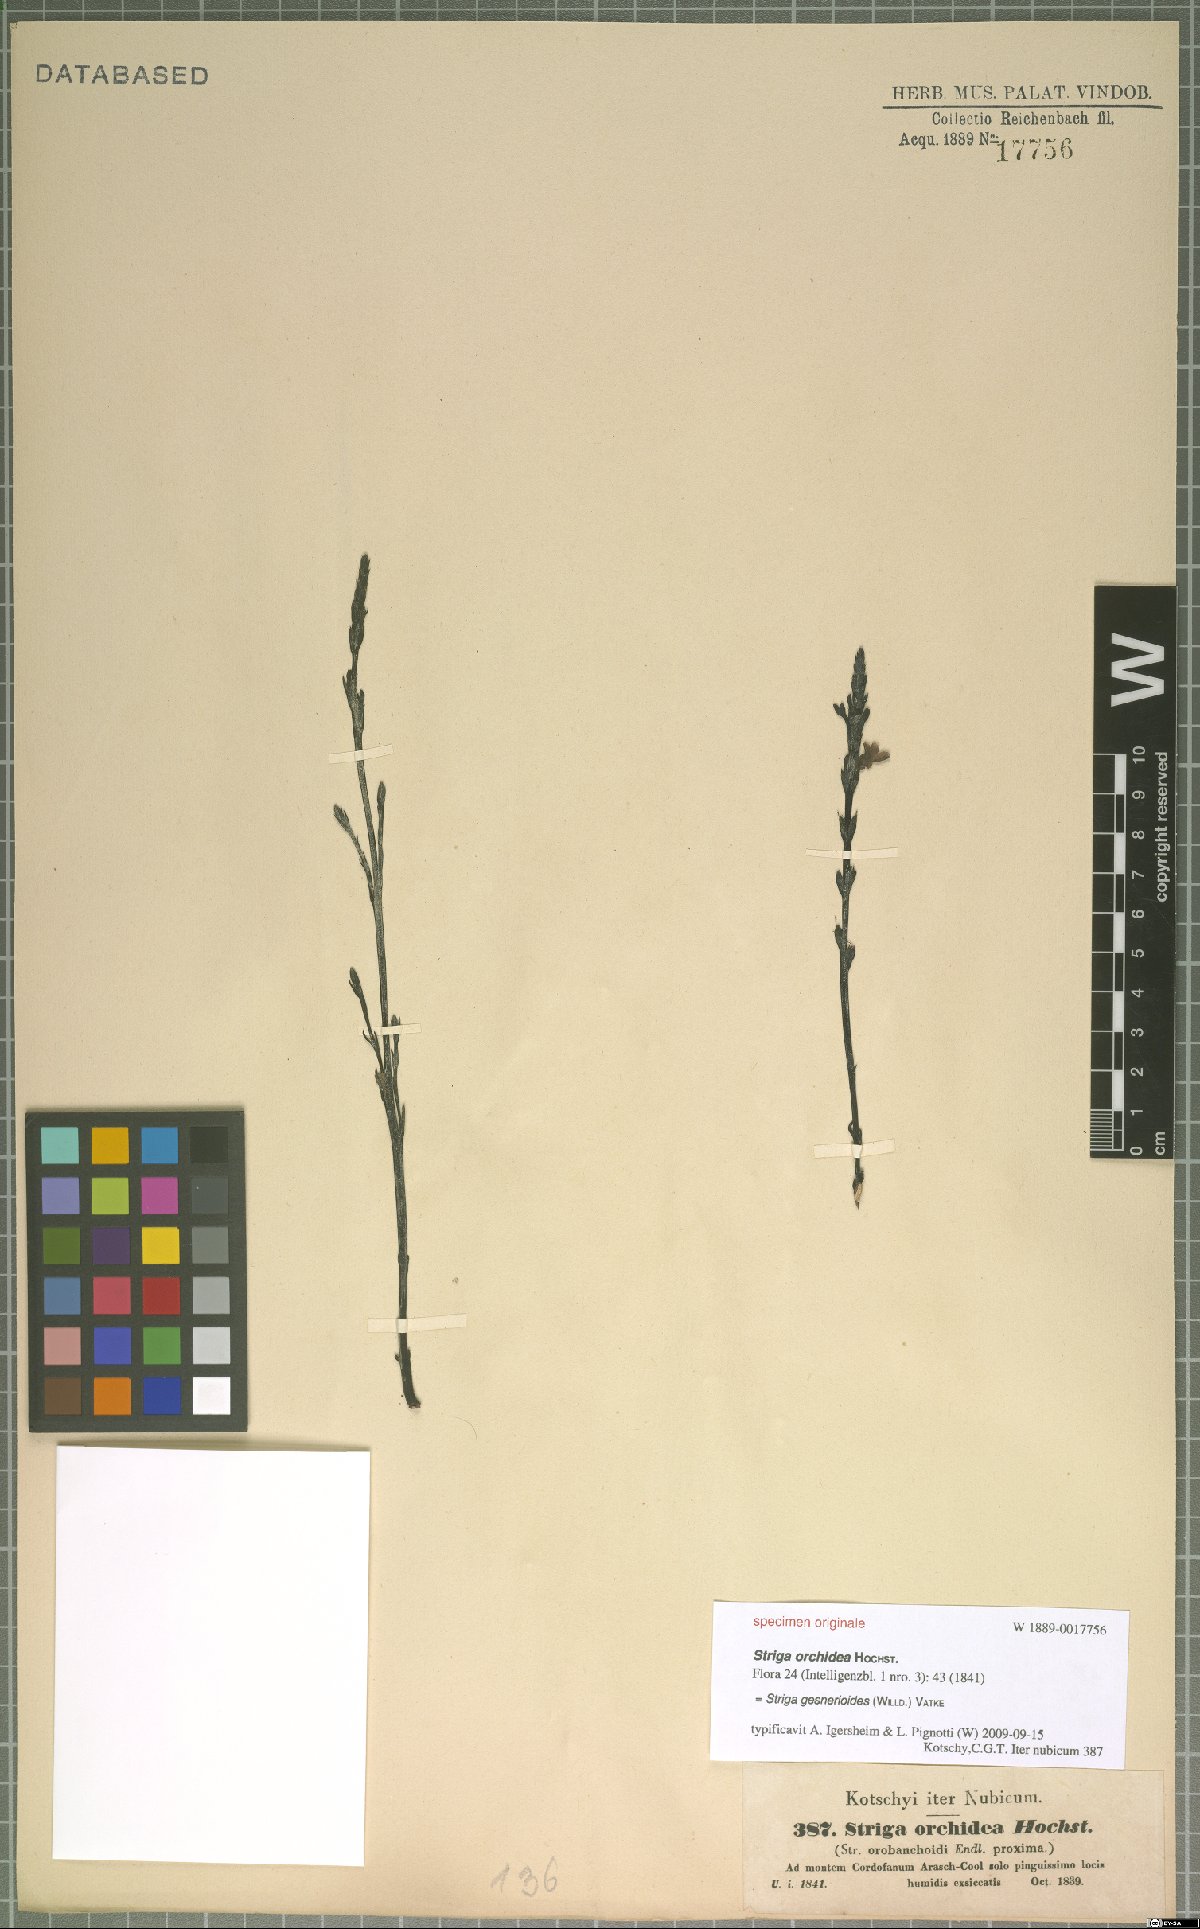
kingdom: Plantae
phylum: Tracheophyta
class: Magnoliopsida
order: Lamiales
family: Orobanchaceae
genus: Striga
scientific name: Striga gesnerioides
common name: Cowpea witchweed
